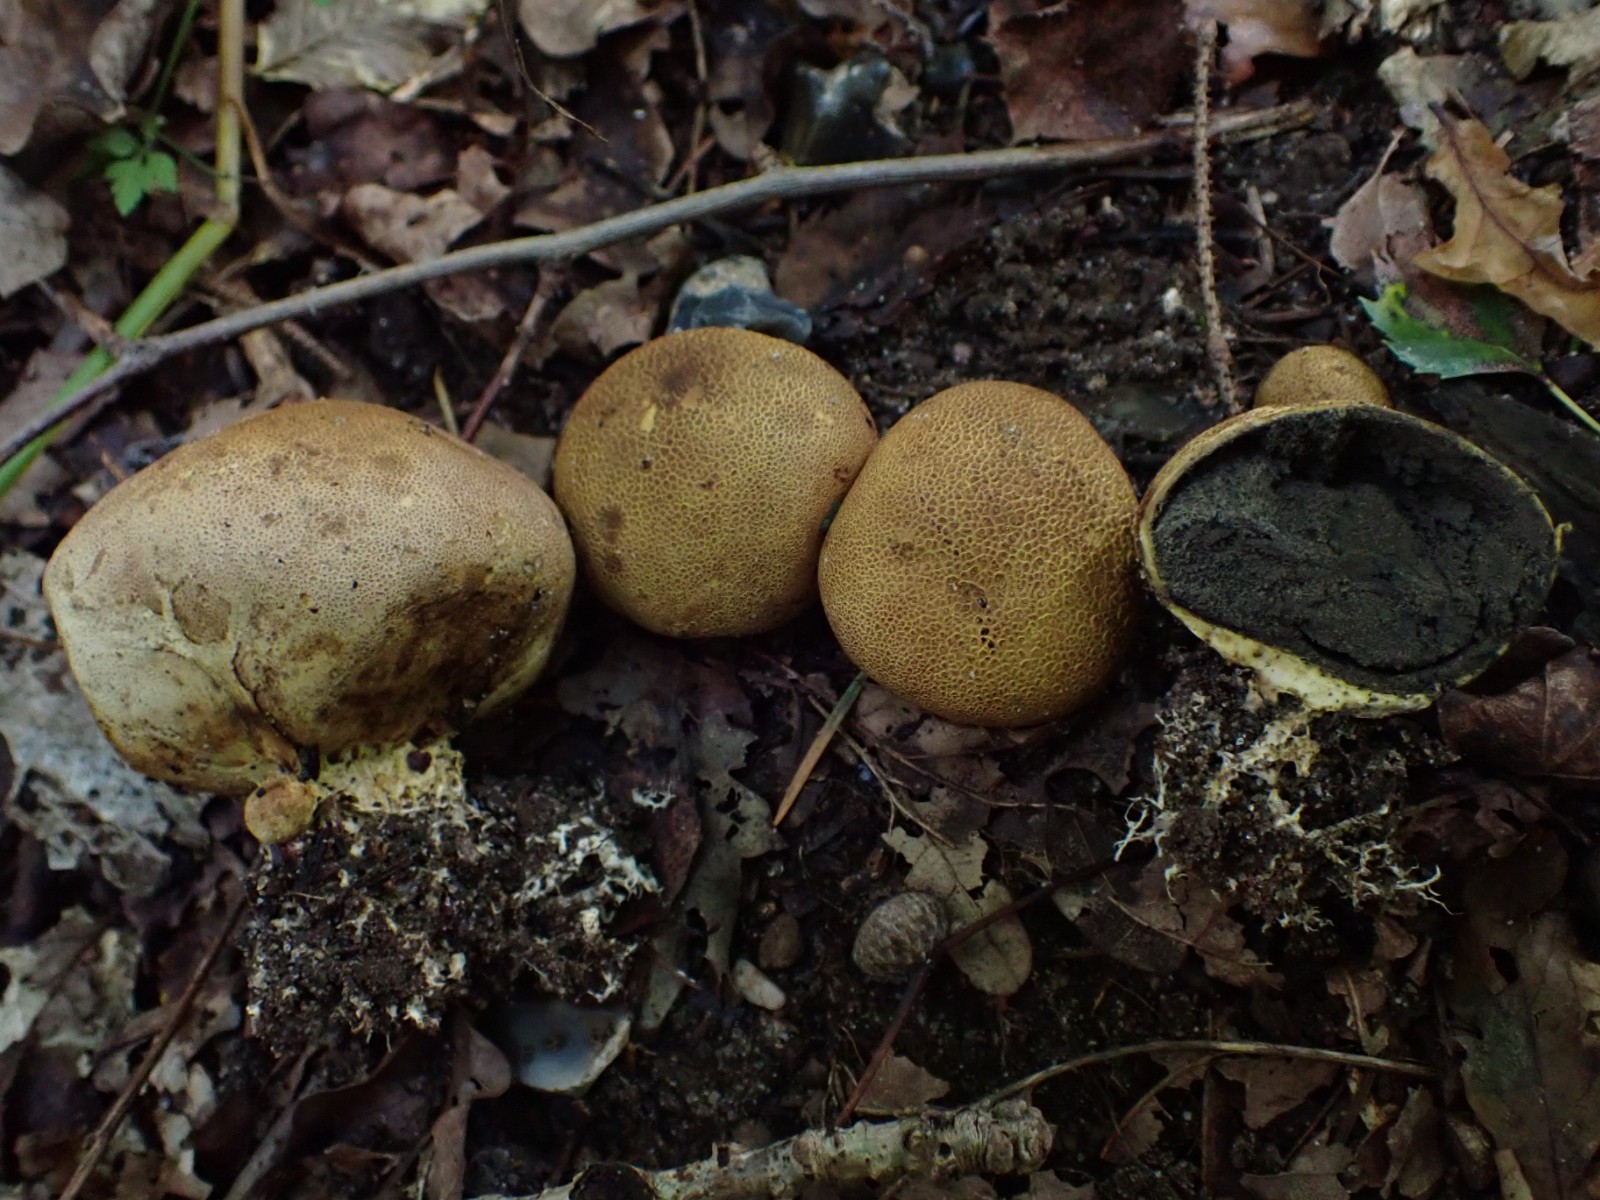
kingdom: Fungi
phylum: Basidiomycota
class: Agaricomycetes
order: Boletales
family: Sclerodermataceae
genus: Scleroderma
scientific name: Scleroderma areolatum
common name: plettet bruskbold
